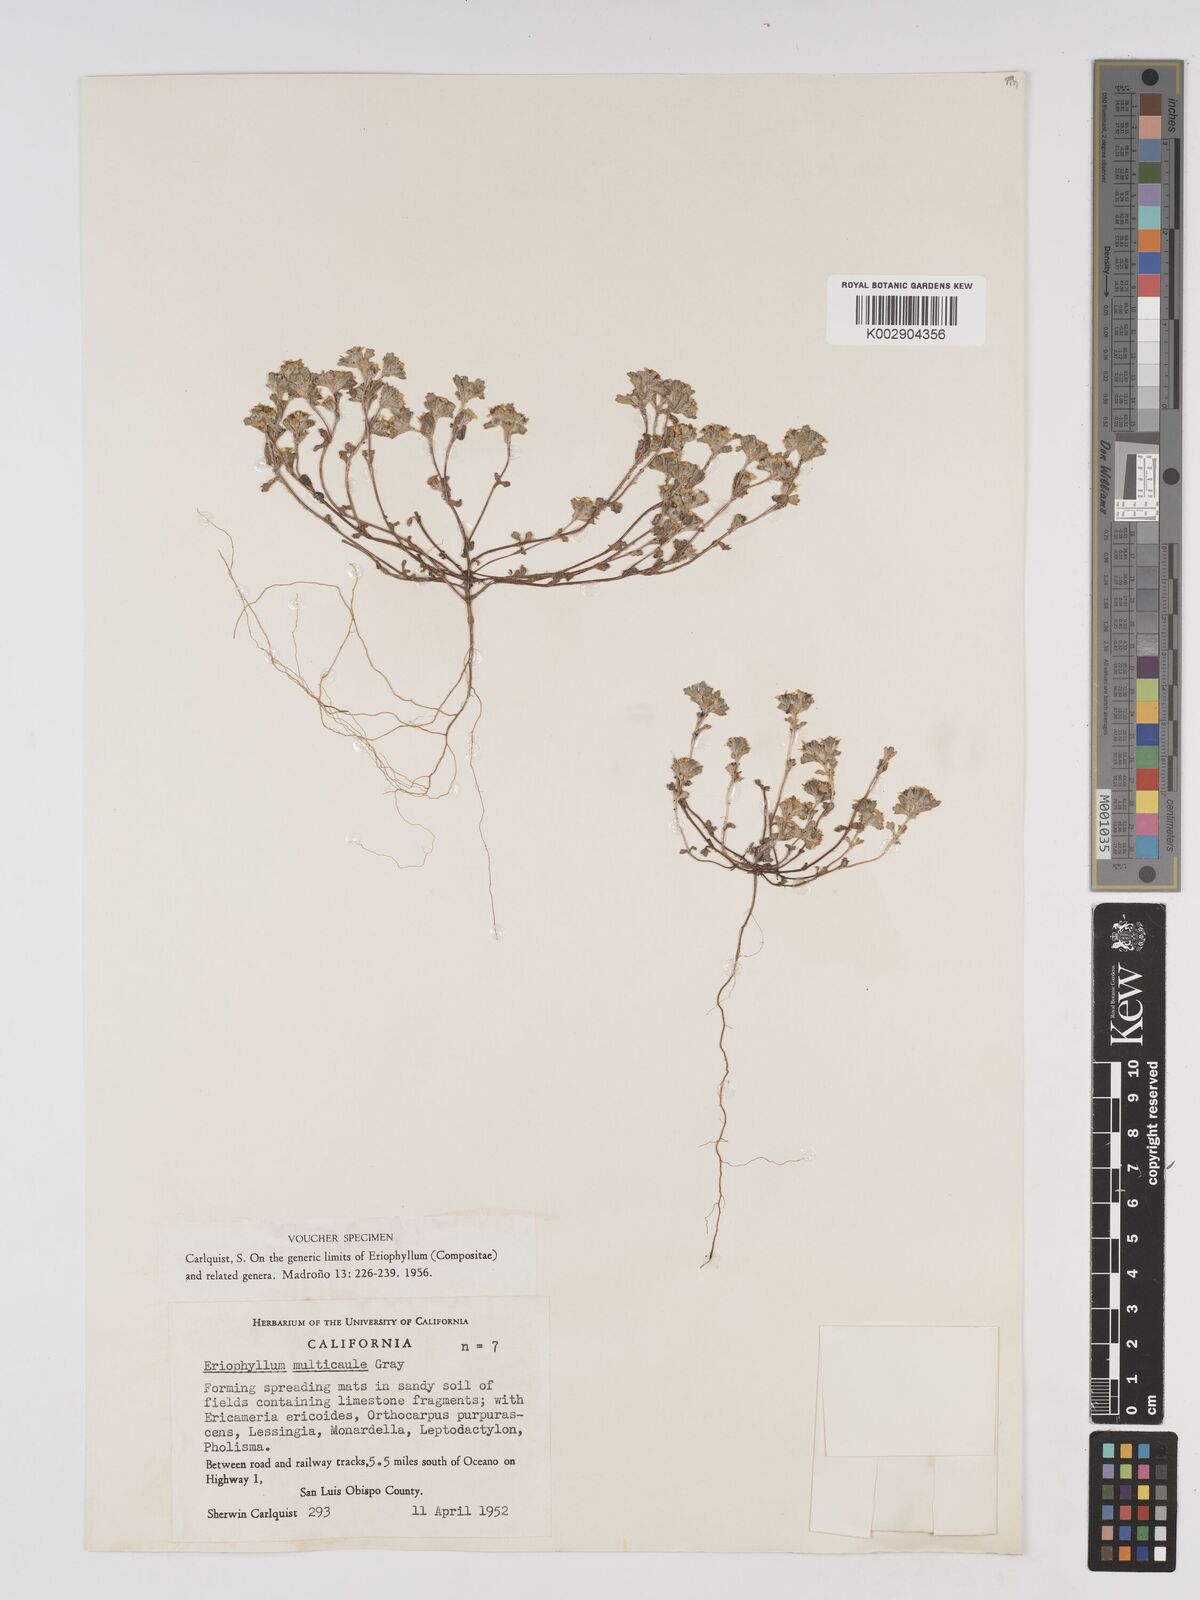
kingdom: Plantae
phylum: Tracheophyta
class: Magnoliopsida
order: Asterales
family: Asteraceae
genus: Eriophyllum
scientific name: Eriophyllum multicaule
